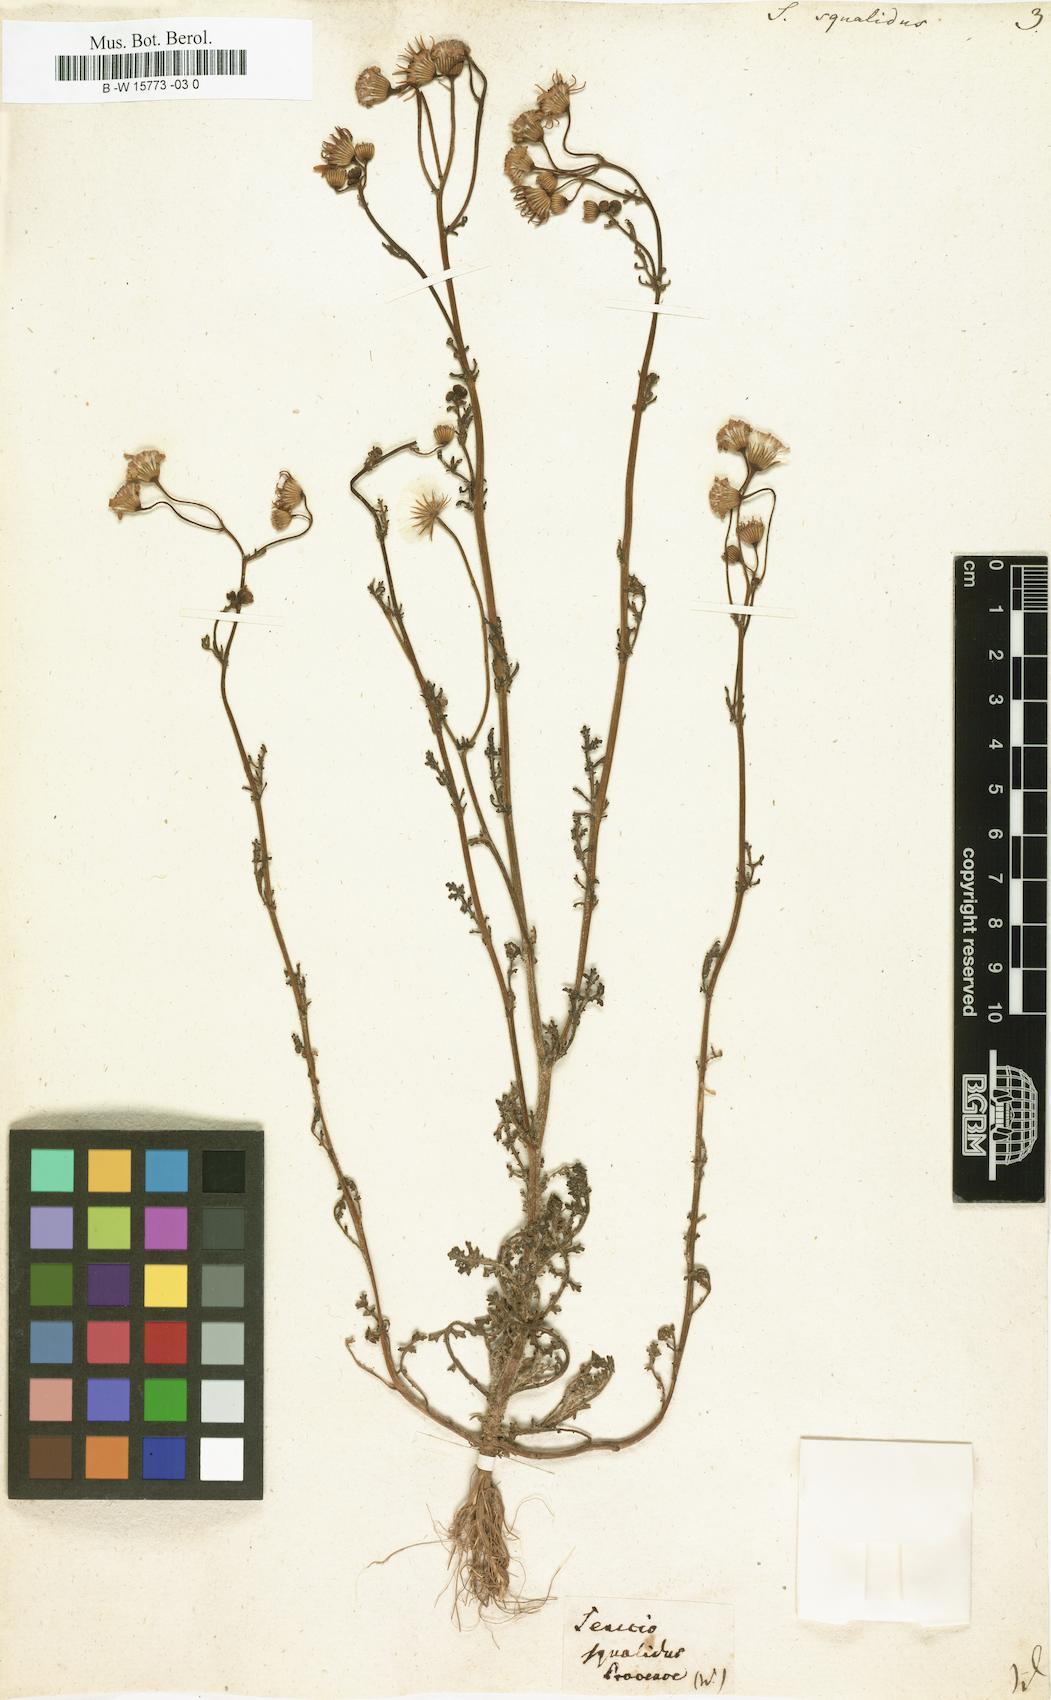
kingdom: Plantae
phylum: Tracheophyta
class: Magnoliopsida
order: Asterales
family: Asteraceae
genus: Senecio
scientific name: Senecio squalidus
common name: Oxford ragwort
